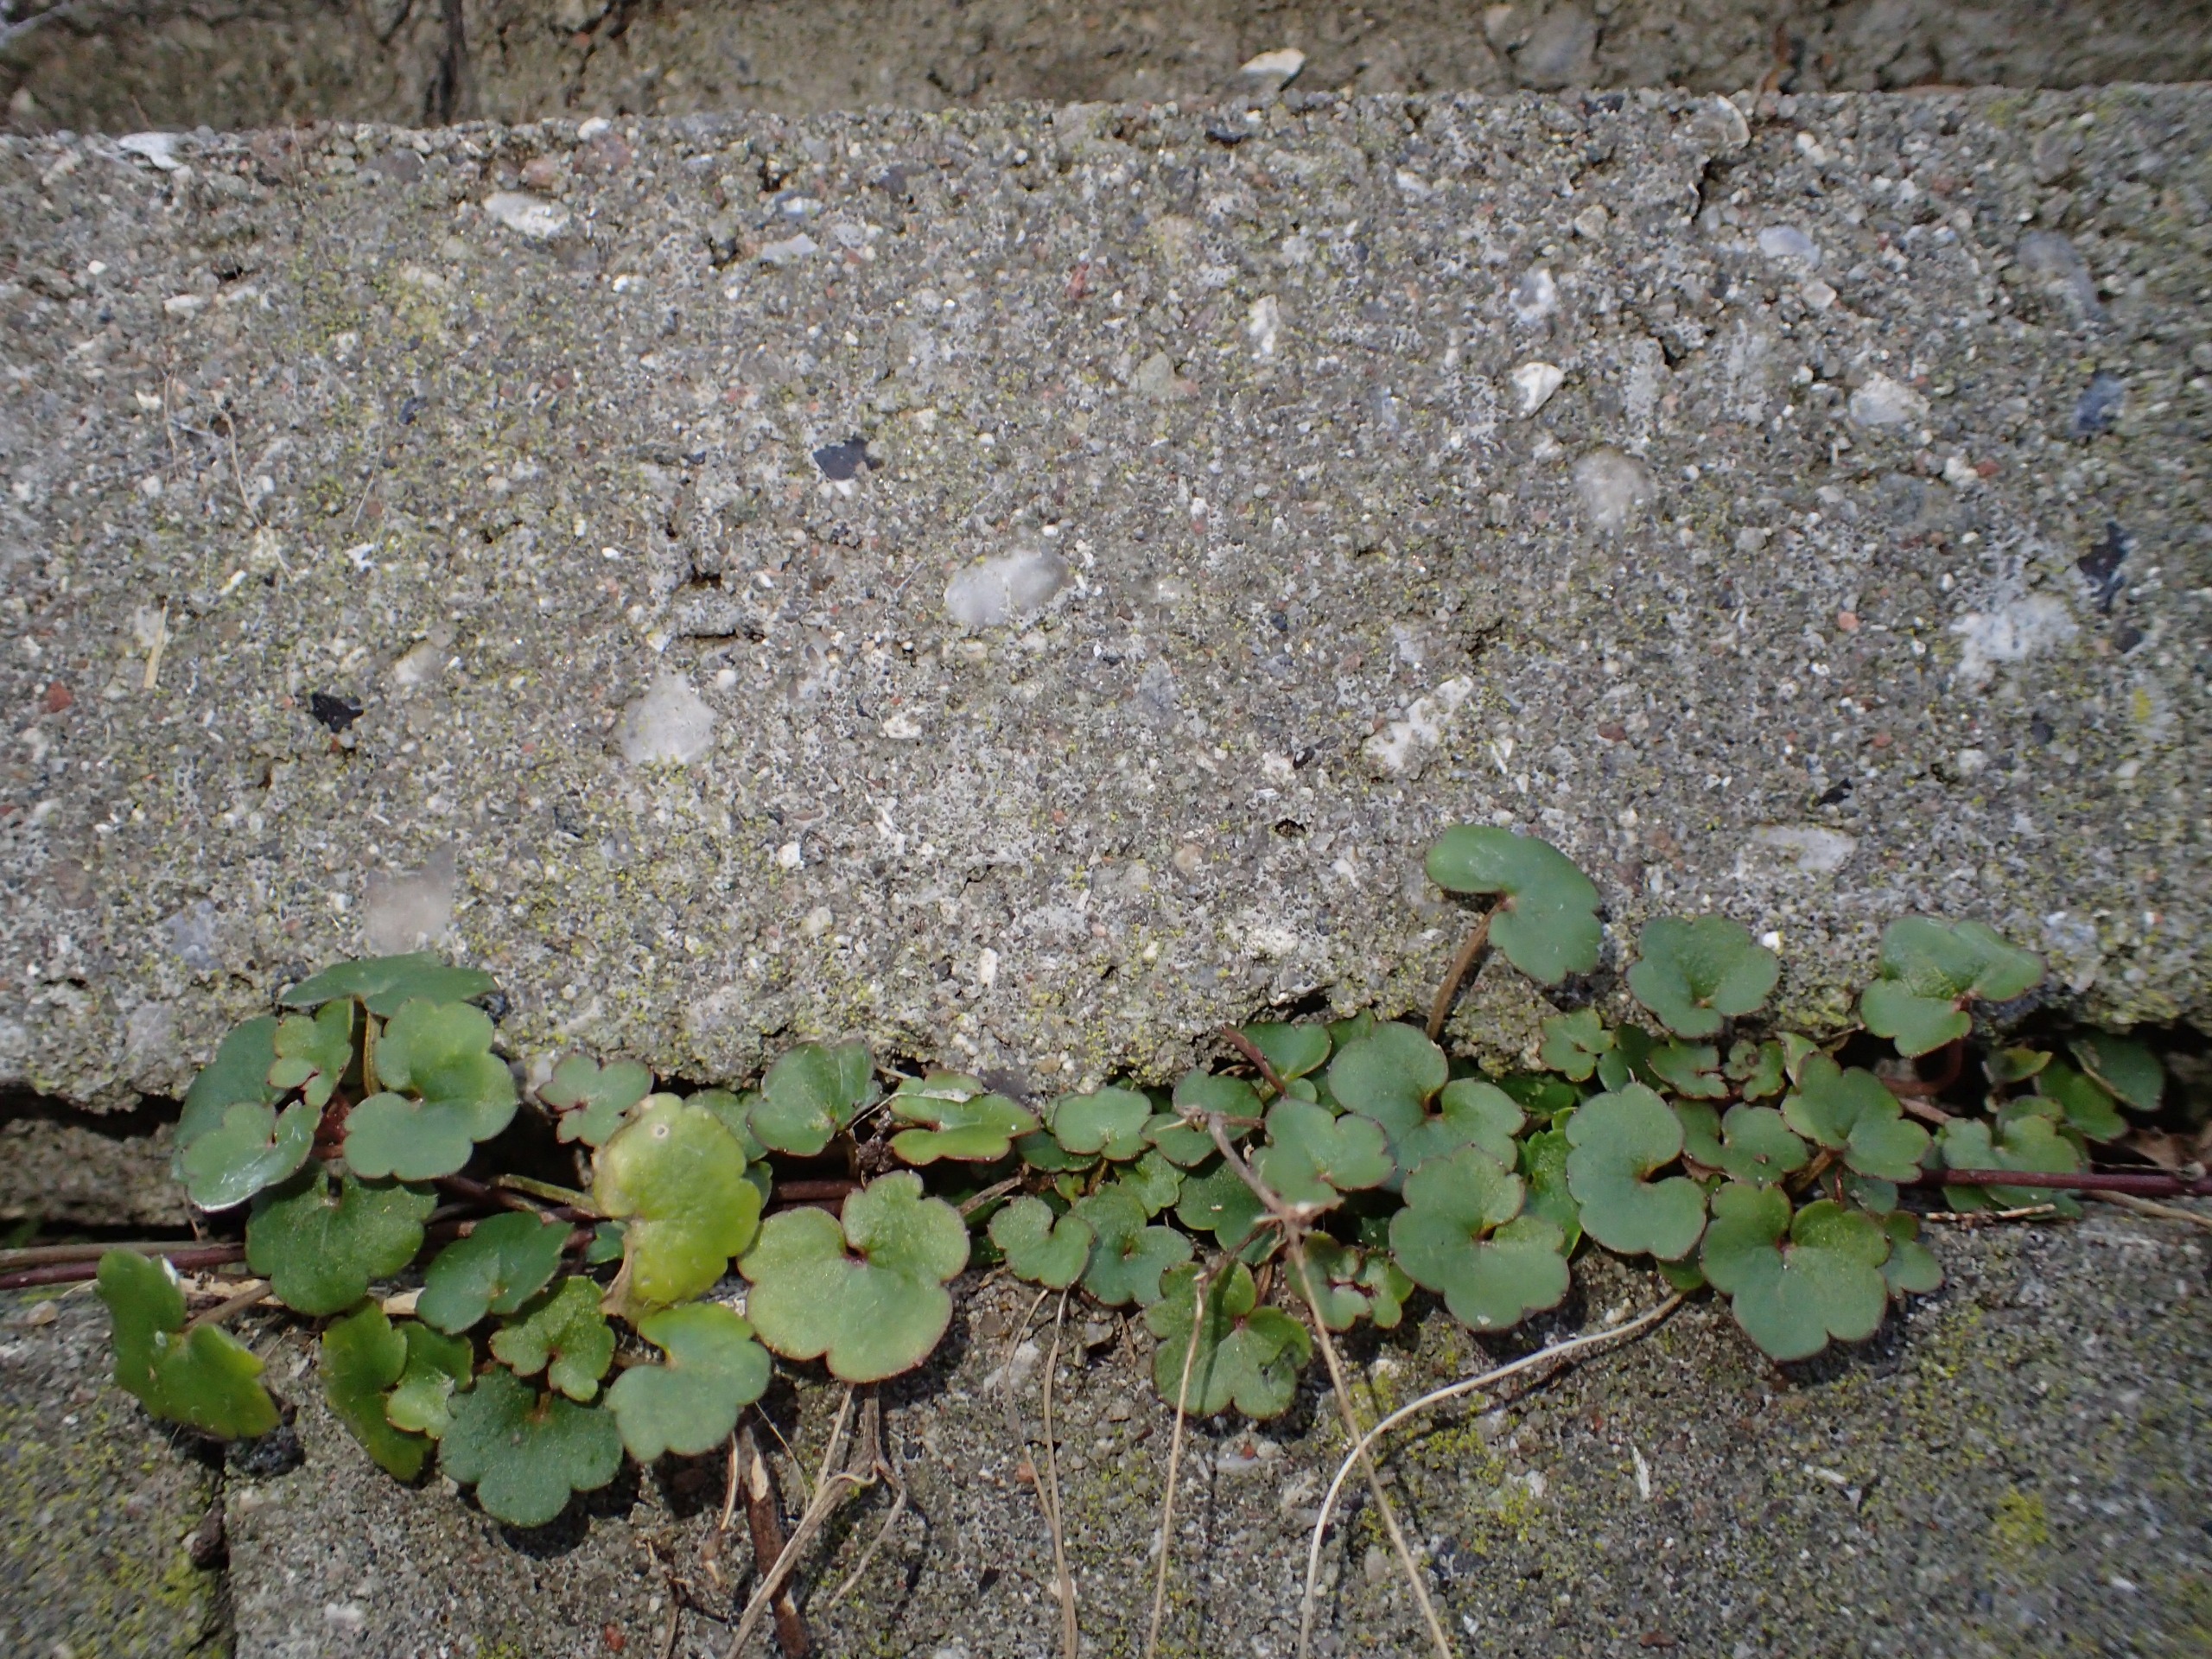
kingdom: Plantae
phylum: Tracheophyta
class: Magnoliopsida
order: Lamiales
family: Plantaginaceae
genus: Cymbalaria
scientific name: Cymbalaria muralis
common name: Vedbend-torskemund
